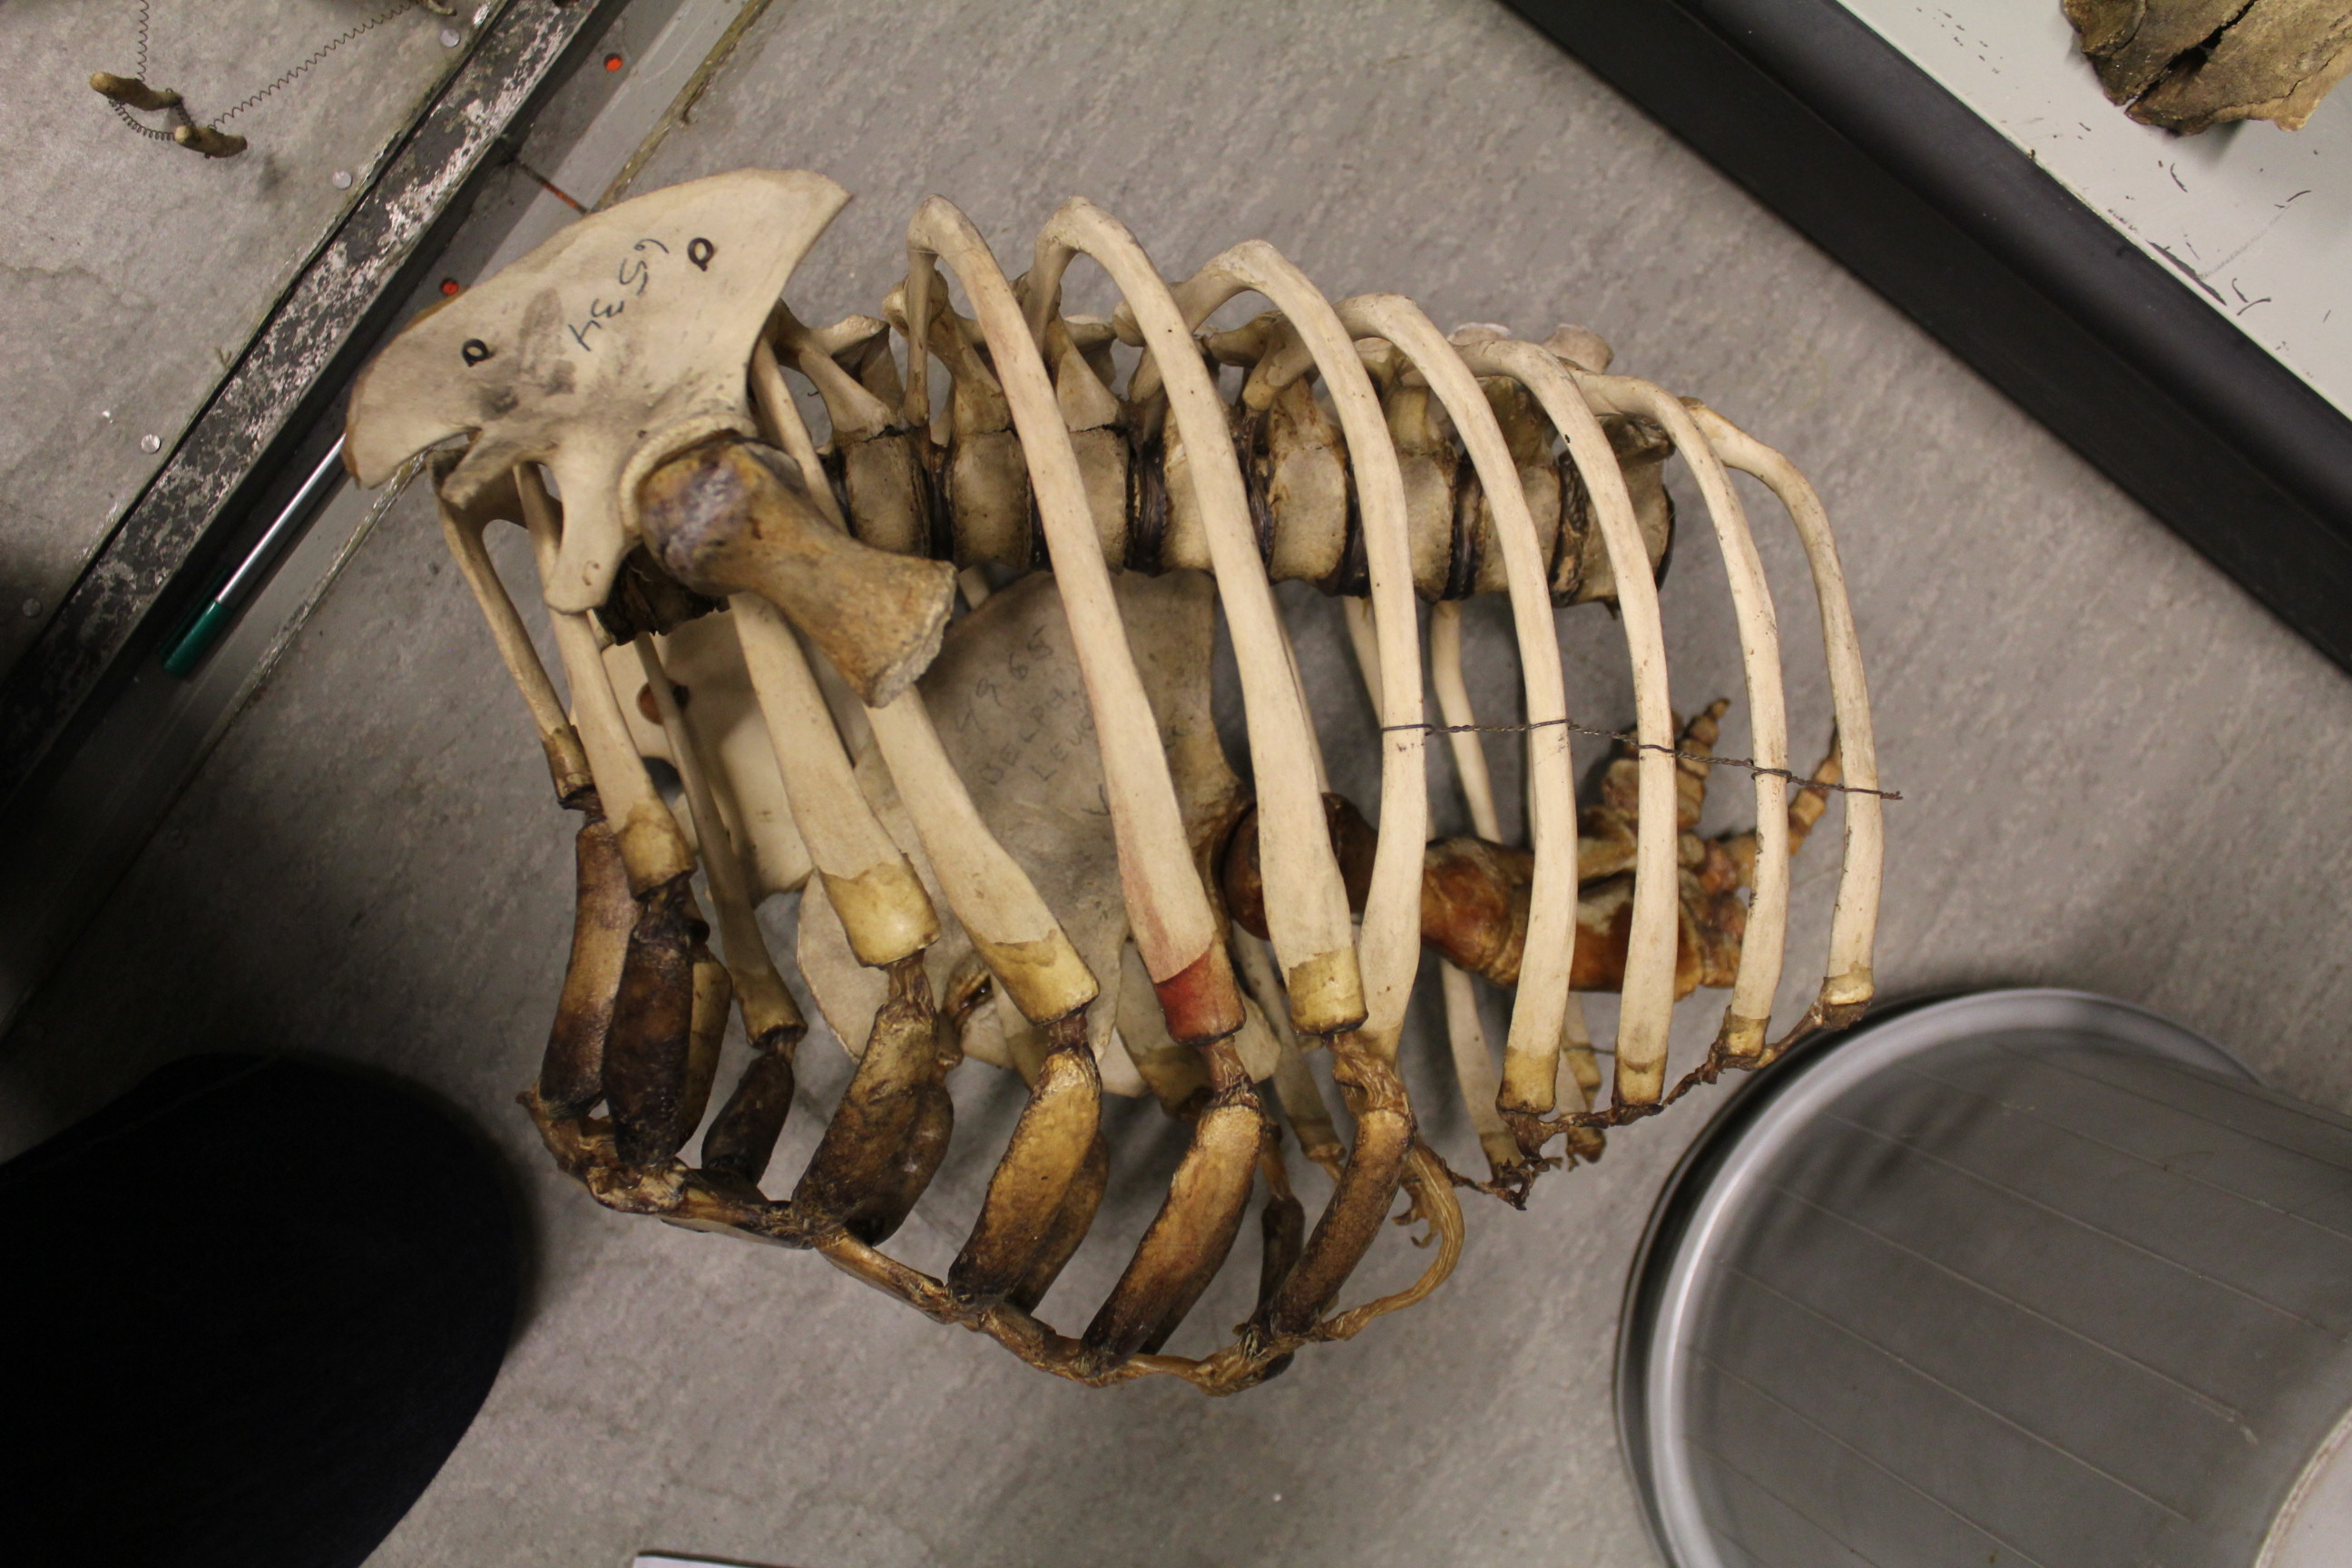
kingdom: Animalia
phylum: Chordata
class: Mammalia
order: Cetacea
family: Monodontidae
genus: Delphinapterus
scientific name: Delphinapterus leucas
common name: Beluga
